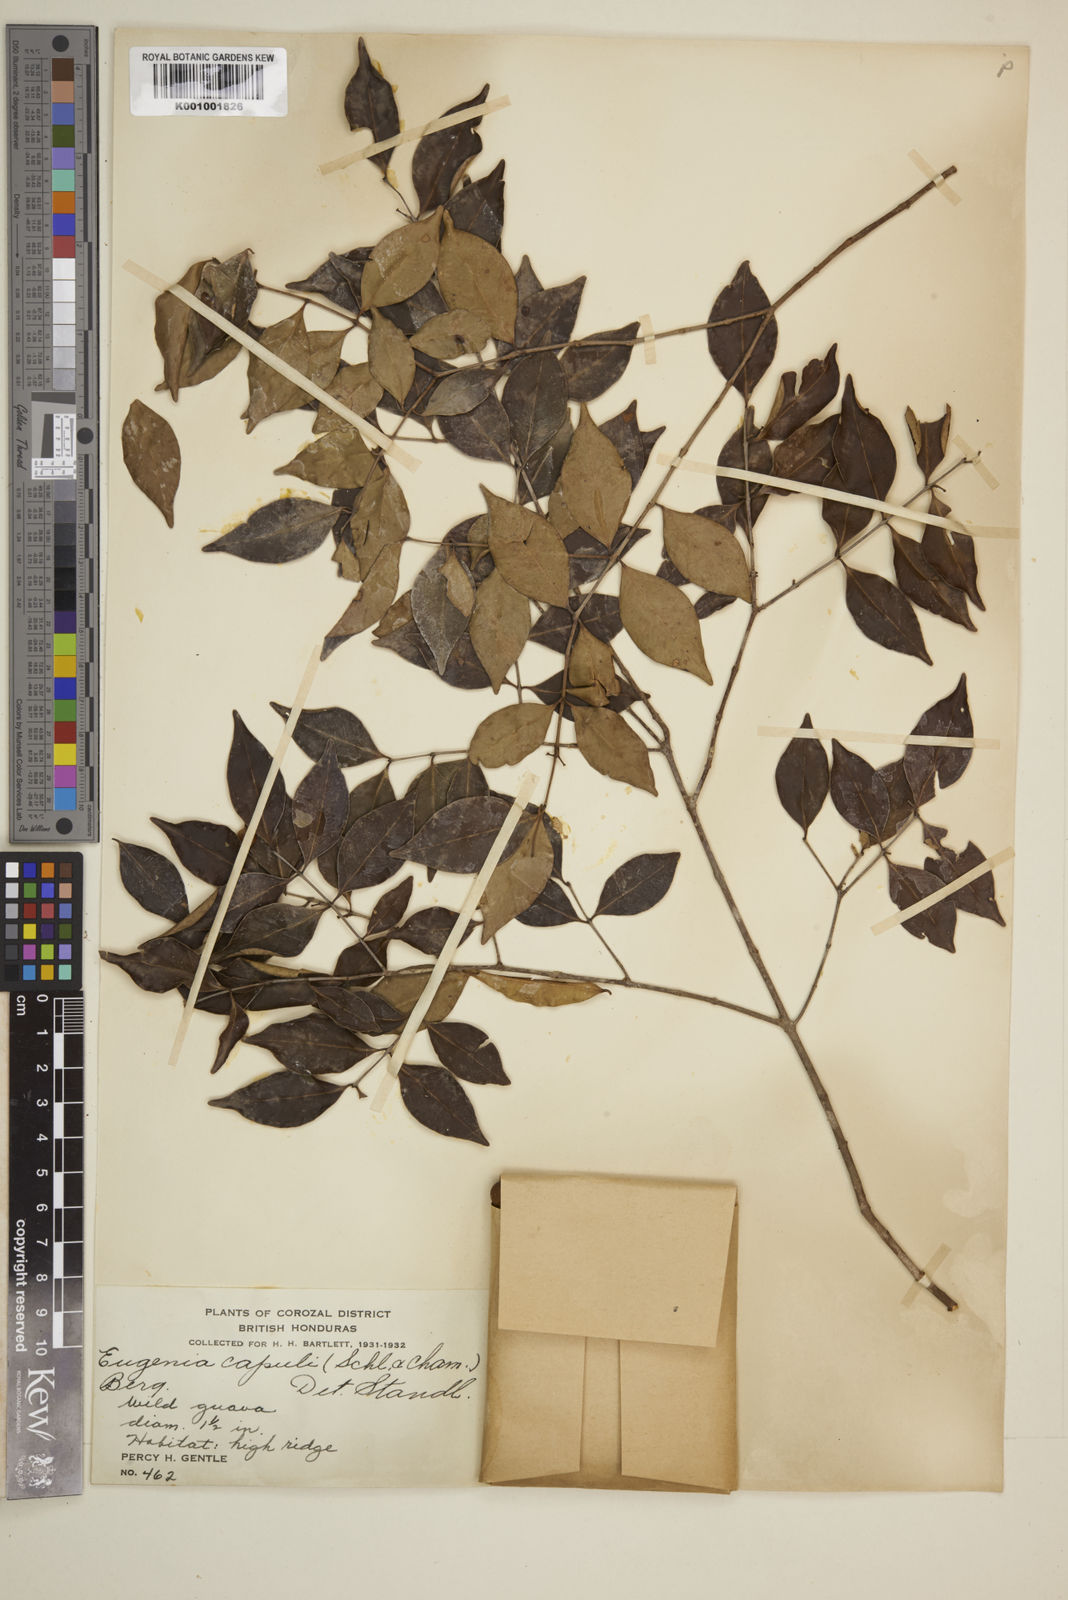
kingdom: Plantae
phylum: Tracheophyta
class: Magnoliopsida
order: Myrtales
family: Myrtaceae
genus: Eugenia
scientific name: Eugenia capuli
